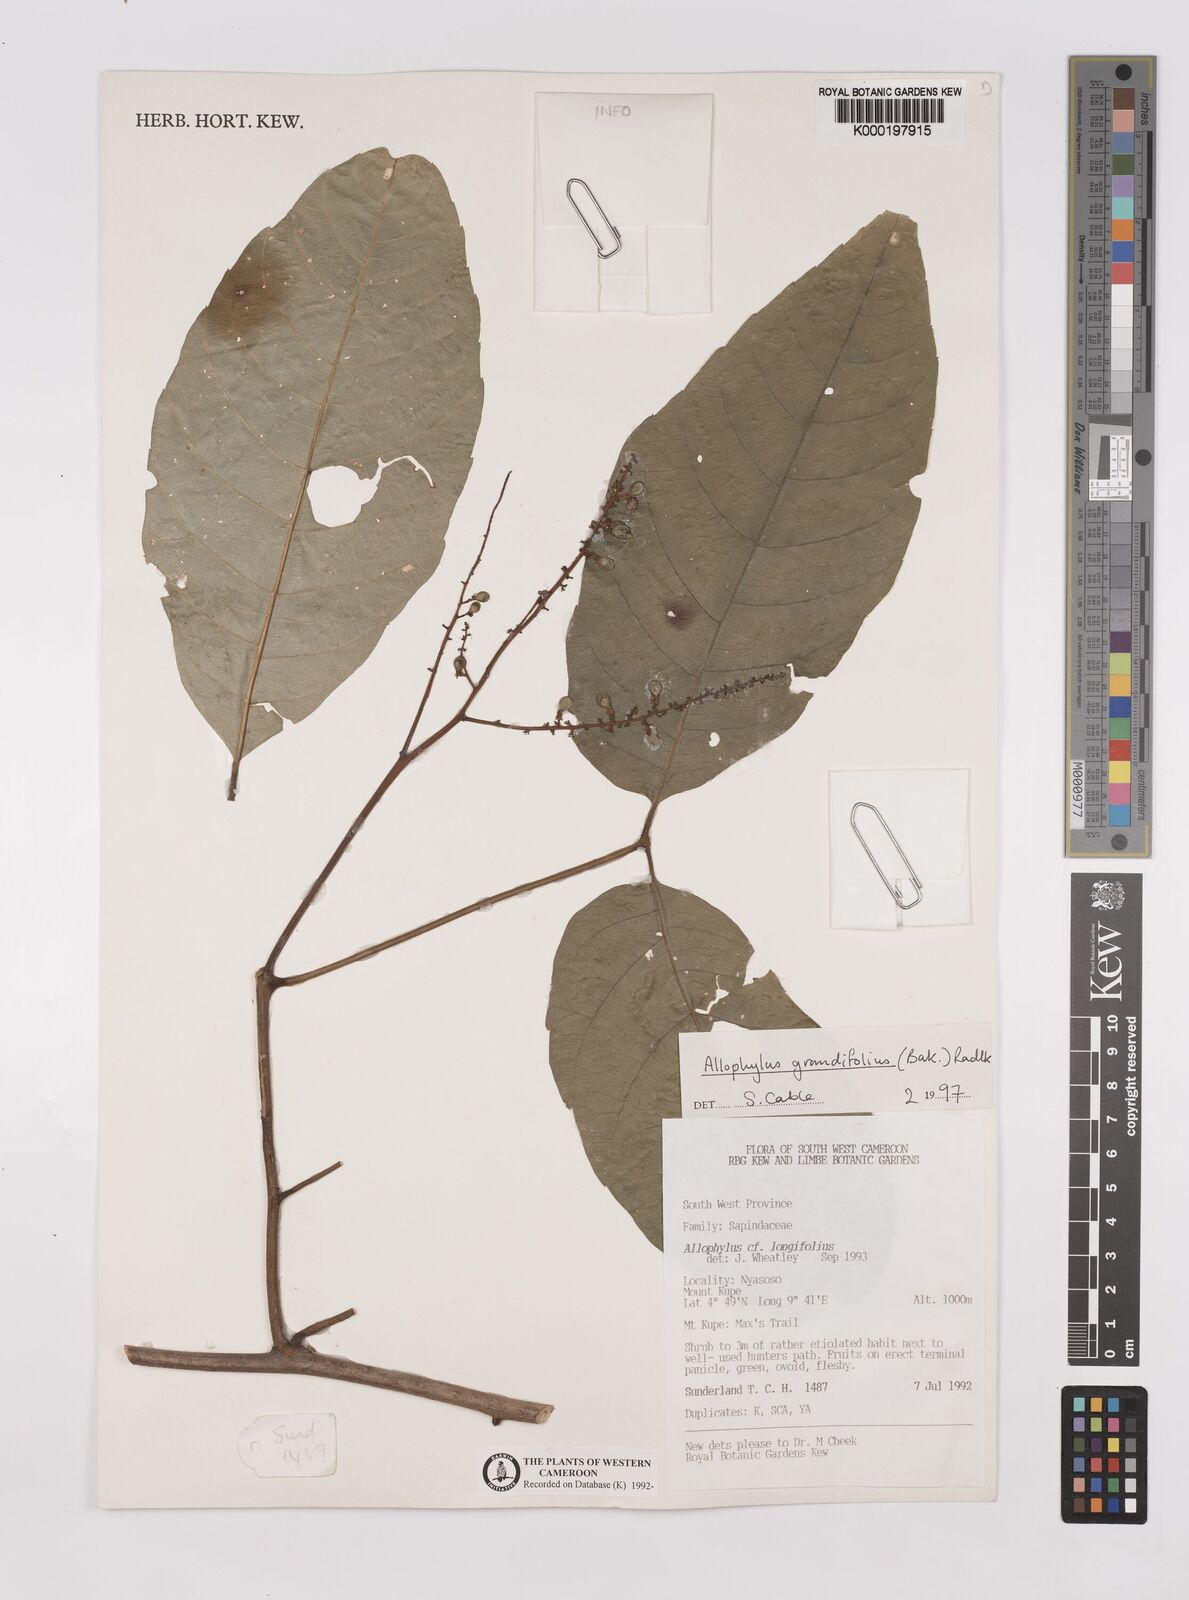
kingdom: Plantae
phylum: Tracheophyta
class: Magnoliopsida
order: Sapindales
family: Sapindaceae
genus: Allophylus
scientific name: Allophylus grandifolius
